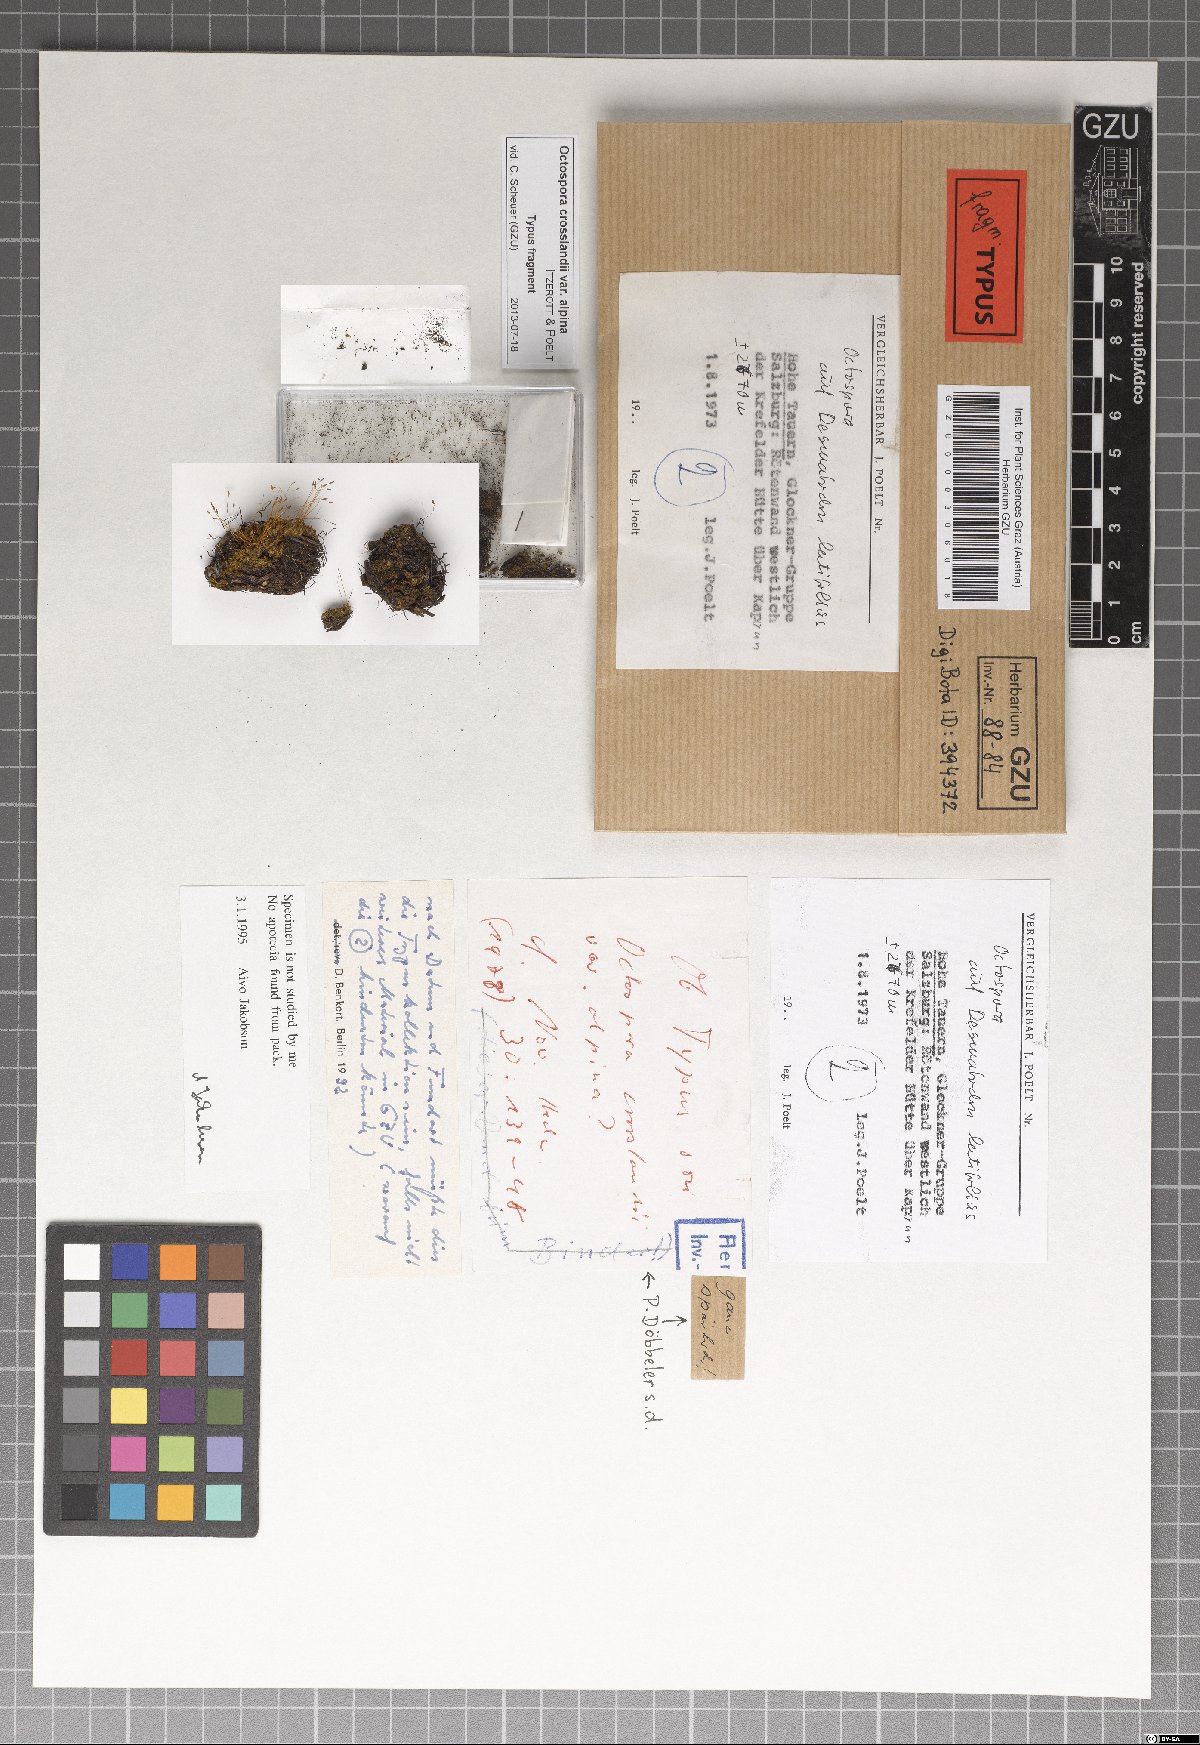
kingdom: Fungi
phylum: Ascomycota
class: Pezizomycetes
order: Pezizales
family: Pyronemataceae
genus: Octospora
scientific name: Octospora crosslandii
